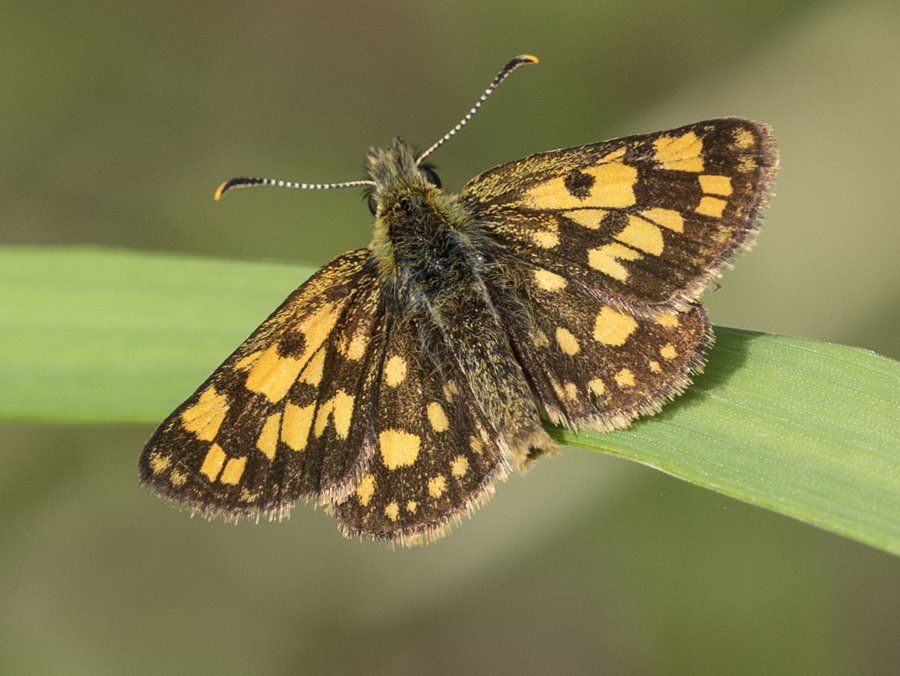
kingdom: Animalia
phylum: Arthropoda
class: Insecta
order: Lepidoptera
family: Hesperiidae
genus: Carterocephalus
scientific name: Carterocephalus palaemon
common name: Chequered Skipper
